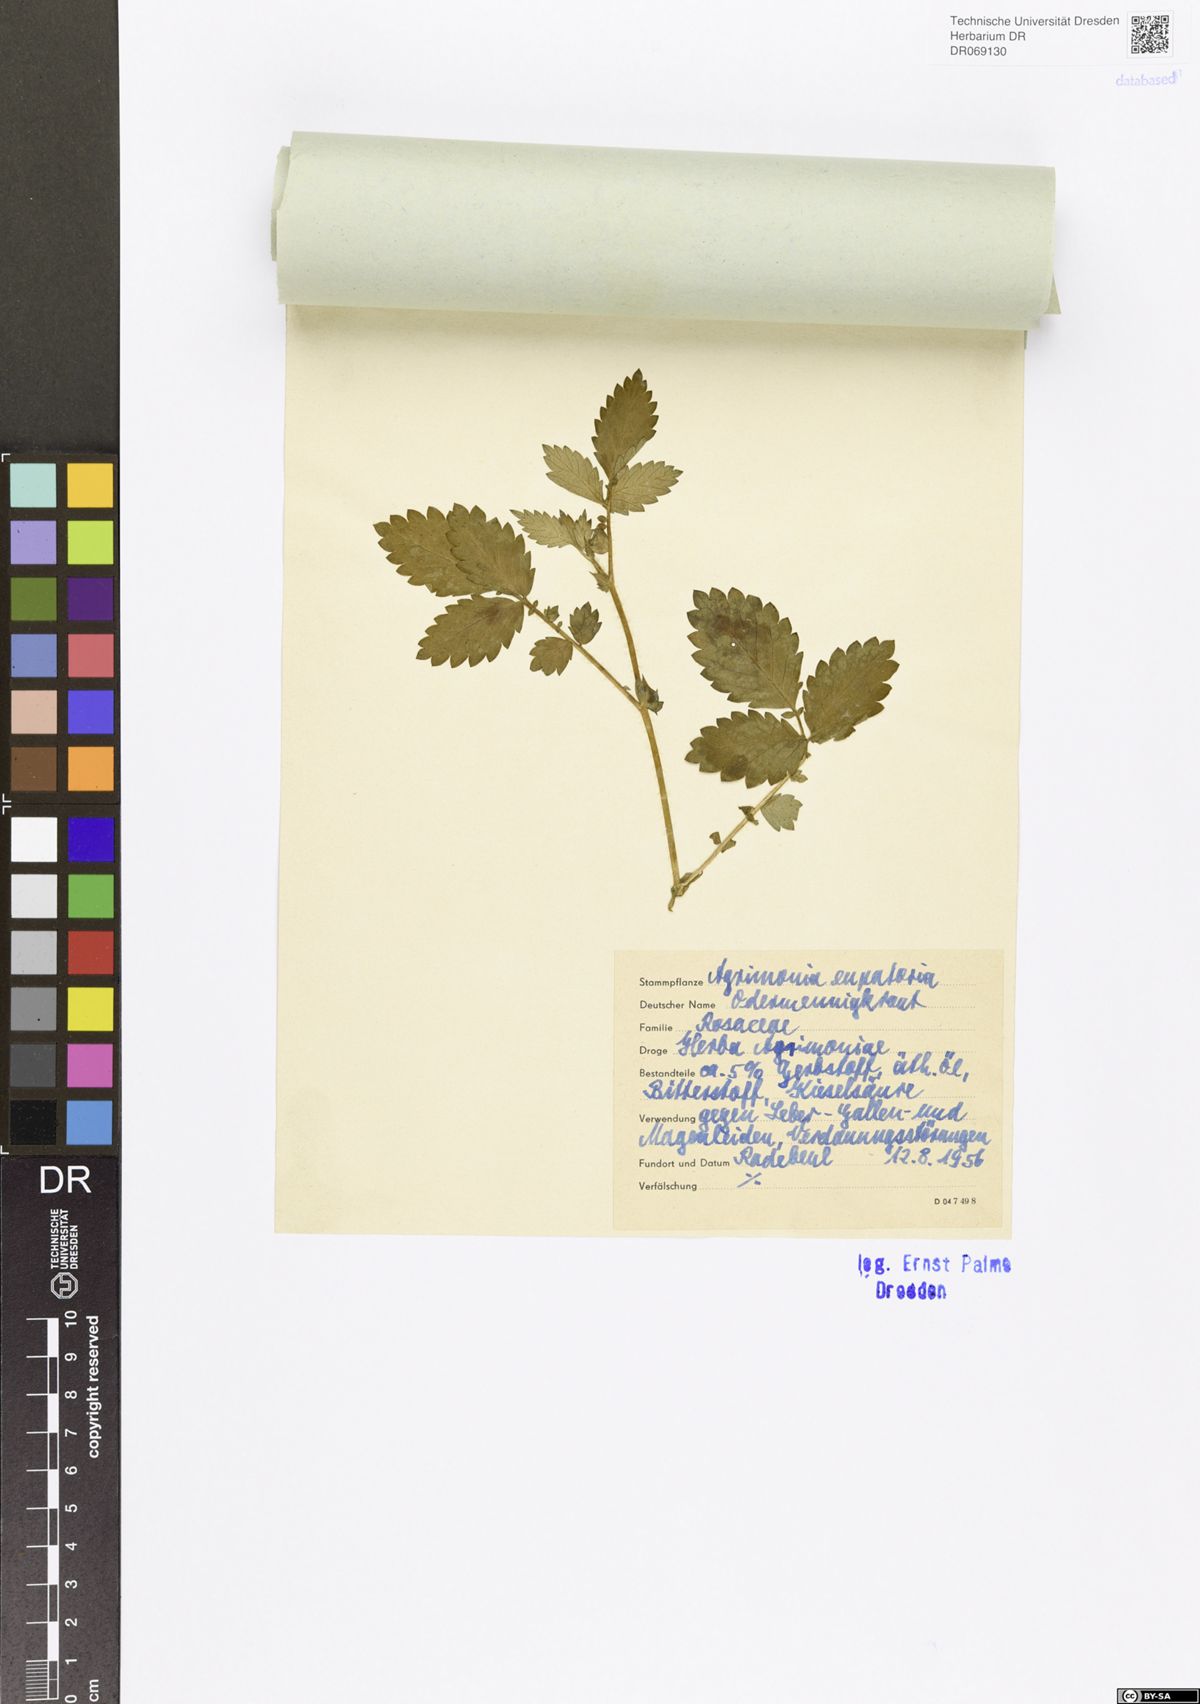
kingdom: Plantae
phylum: Tracheophyta
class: Magnoliopsida
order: Rosales
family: Rosaceae
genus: Agrimonia
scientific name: Agrimonia eupatoria
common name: Agrimony
